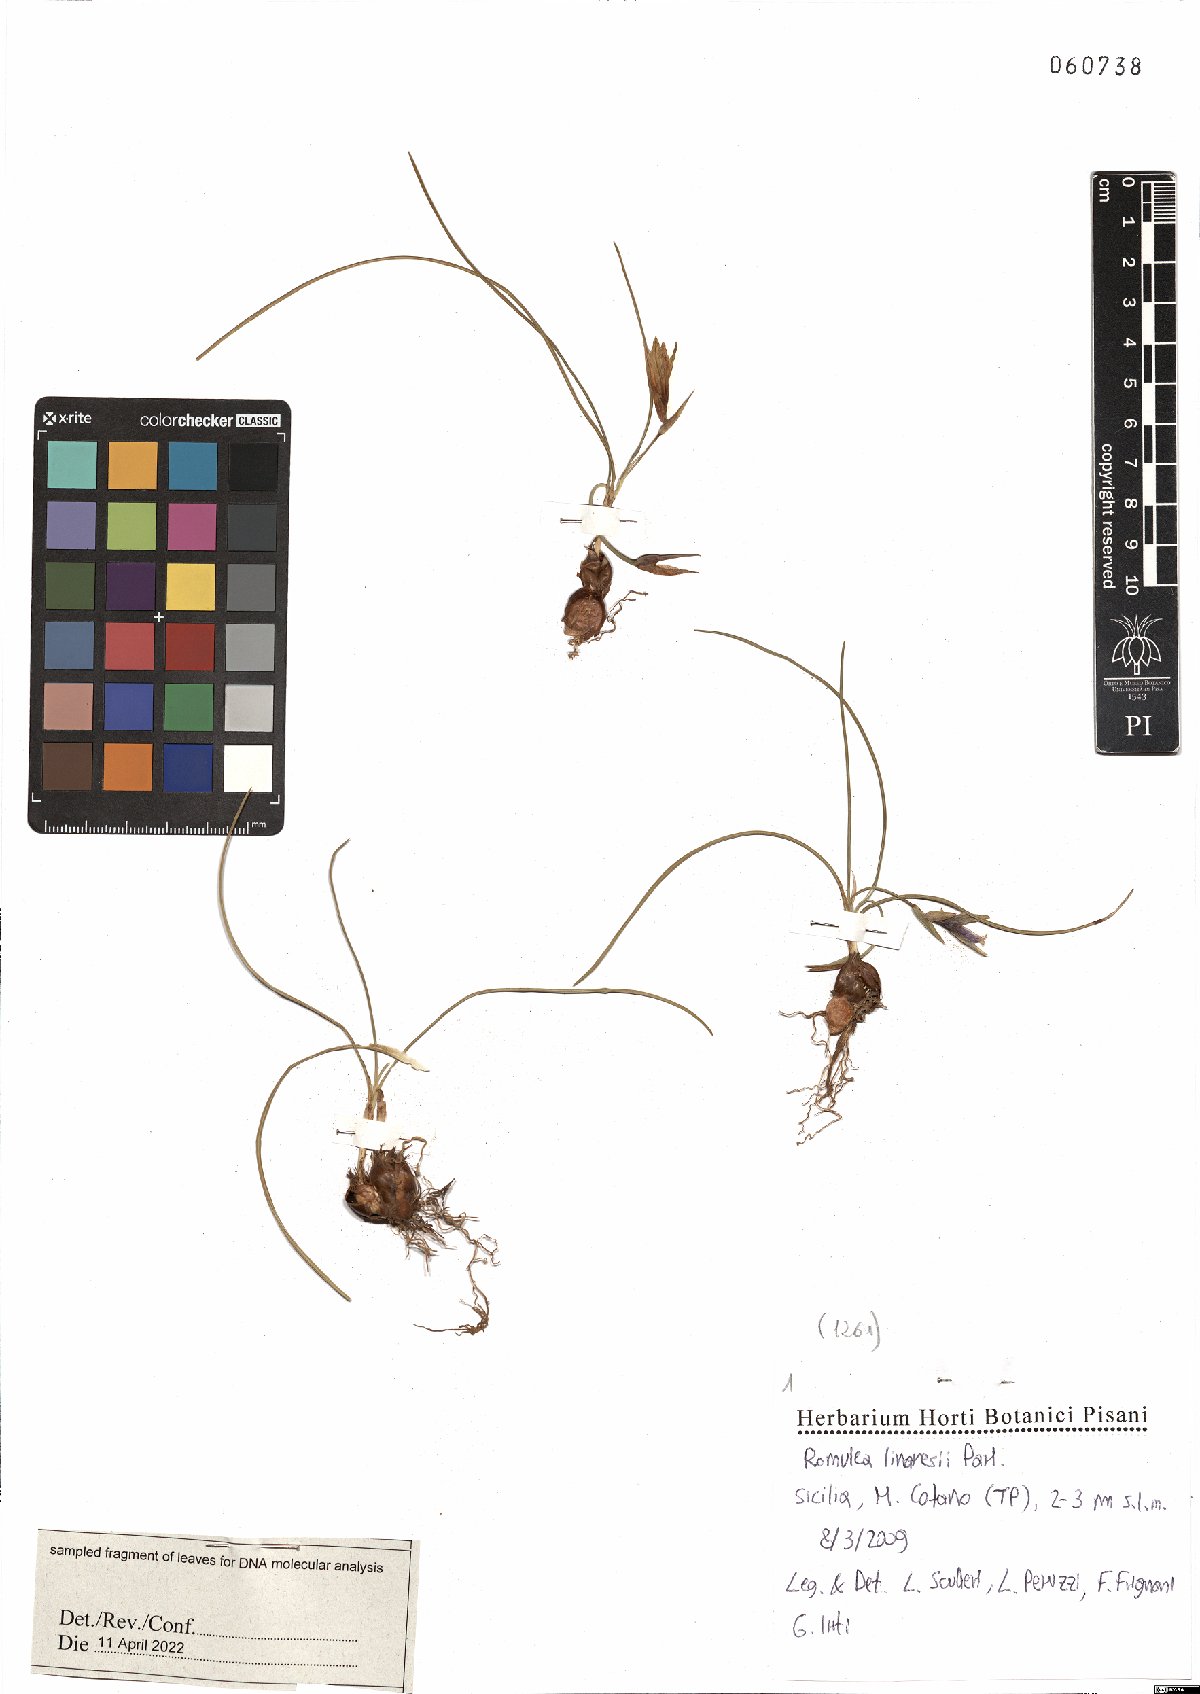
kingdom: Plantae
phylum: Tracheophyta
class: Liliopsida
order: Asparagales
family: Iridaceae
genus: Romulea
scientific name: Romulea linaresii
